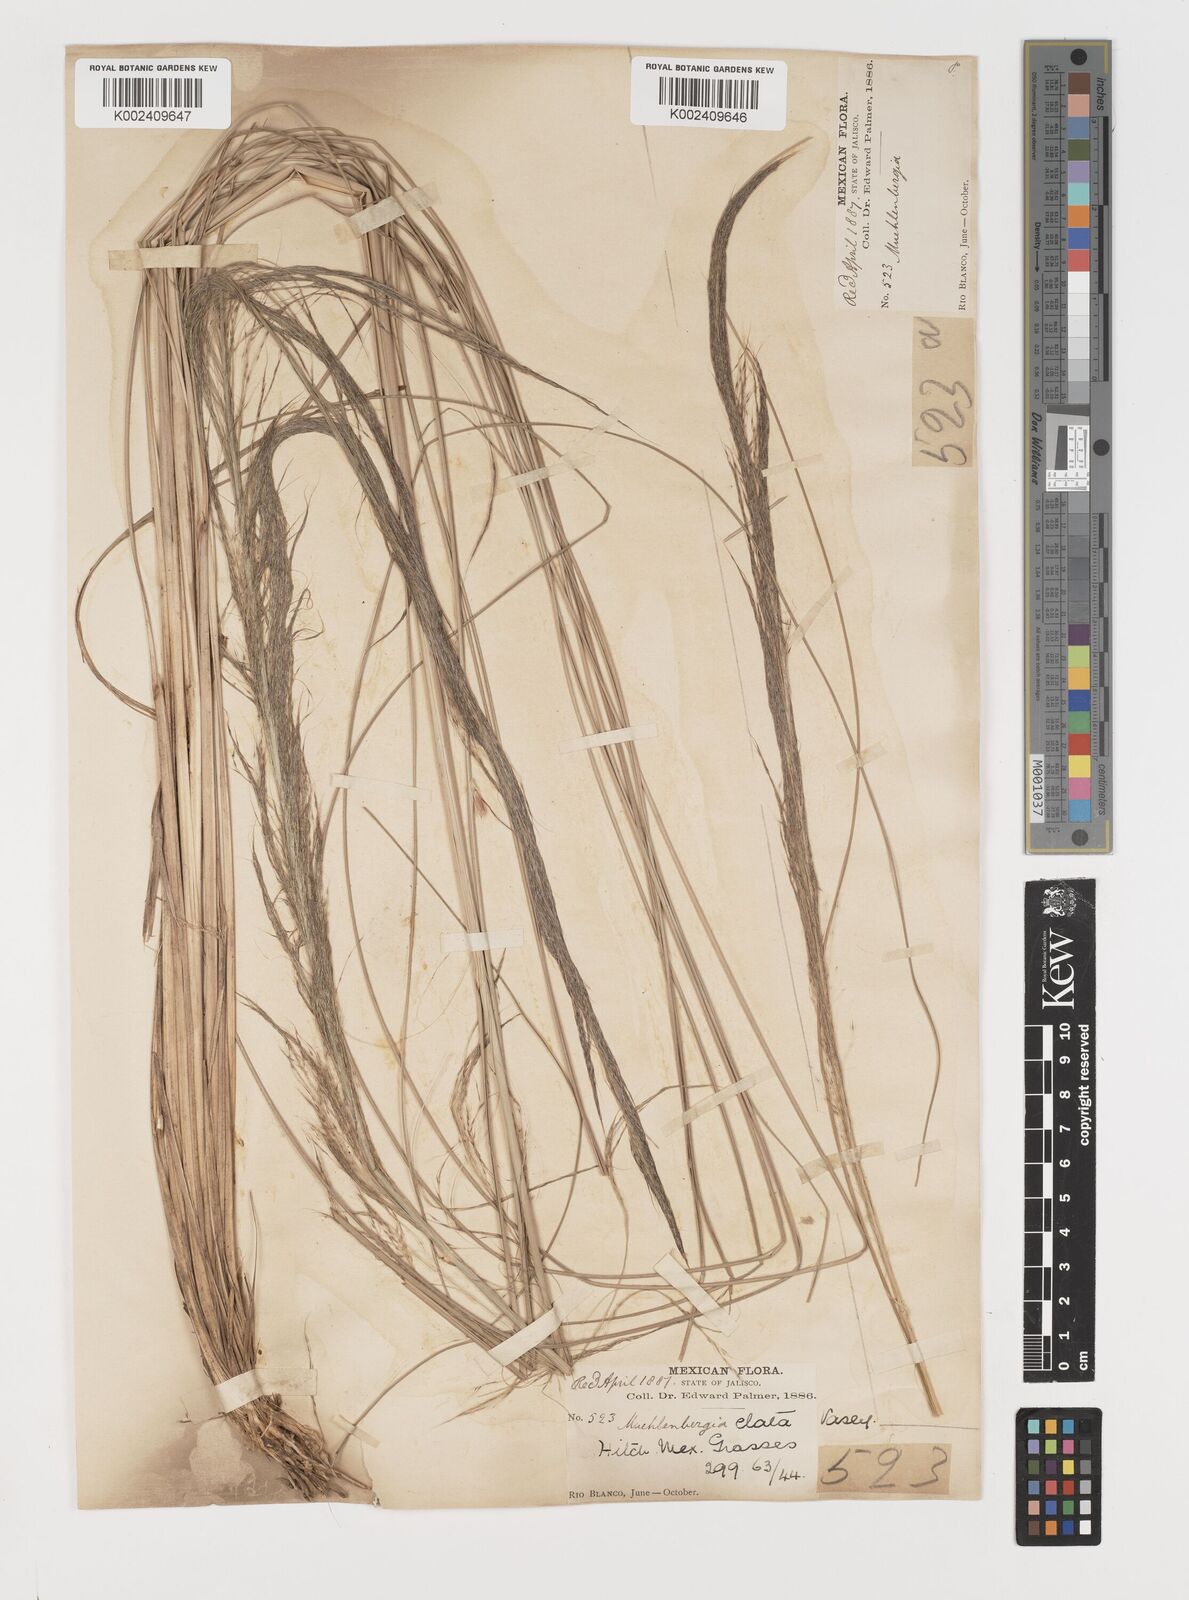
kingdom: Plantae
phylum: Tracheophyta
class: Liliopsida
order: Poales
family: Poaceae
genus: Muhlenbergia
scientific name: Muhlenbergia stricta
